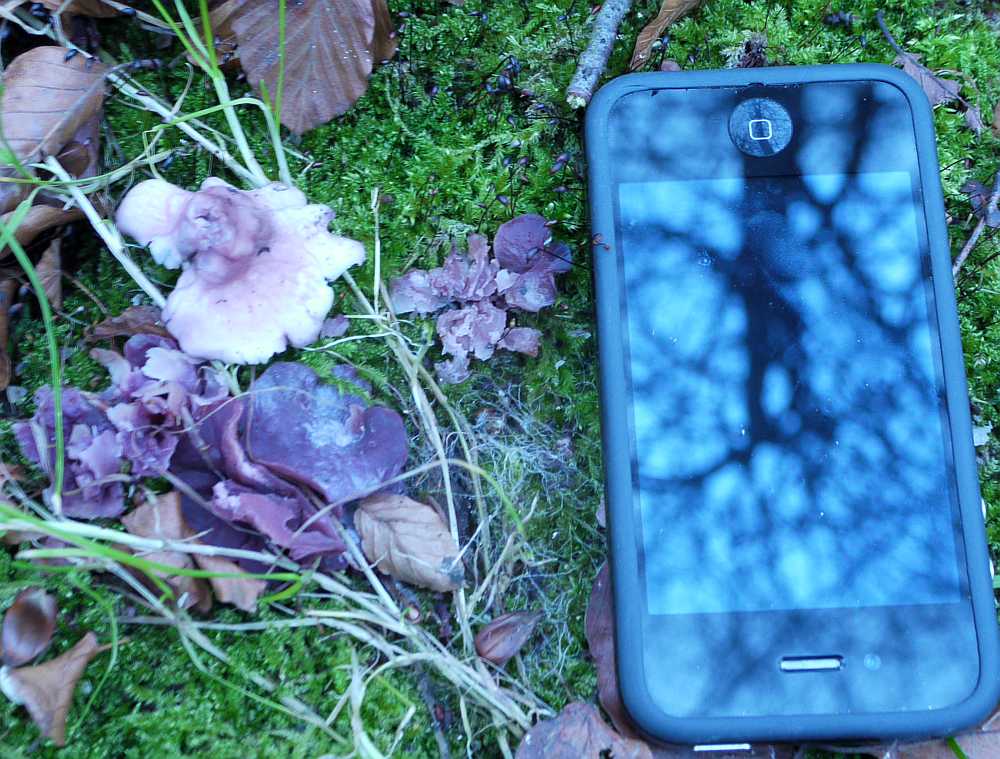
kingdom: Fungi
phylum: Ascomycota
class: Leotiomycetes
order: Helotiales
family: Gelatinodiscaceae
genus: Ascocoryne
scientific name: Ascocoryne cylichnium
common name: stor sejskive
